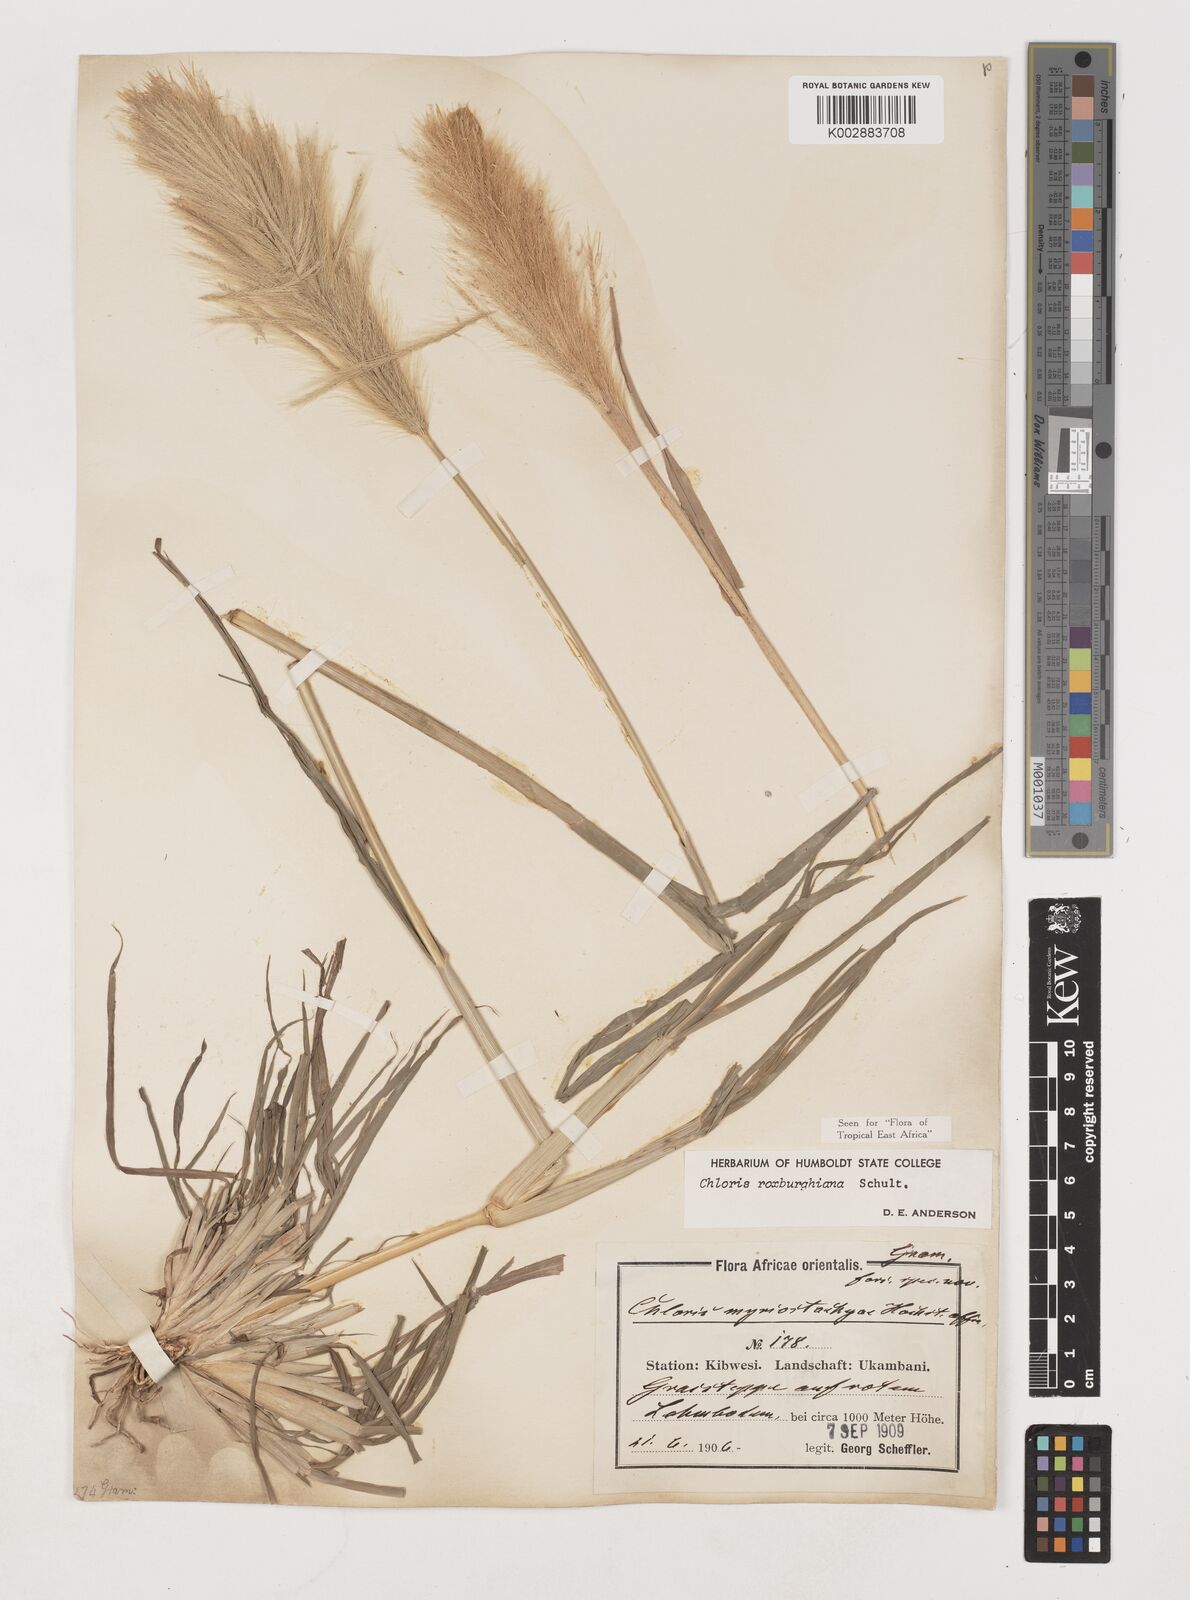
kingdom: Plantae
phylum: Tracheophyta
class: Liliopsida
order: Poales
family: Poaceae
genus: Tetrapogon
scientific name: Tetrapogon roxburghiana
